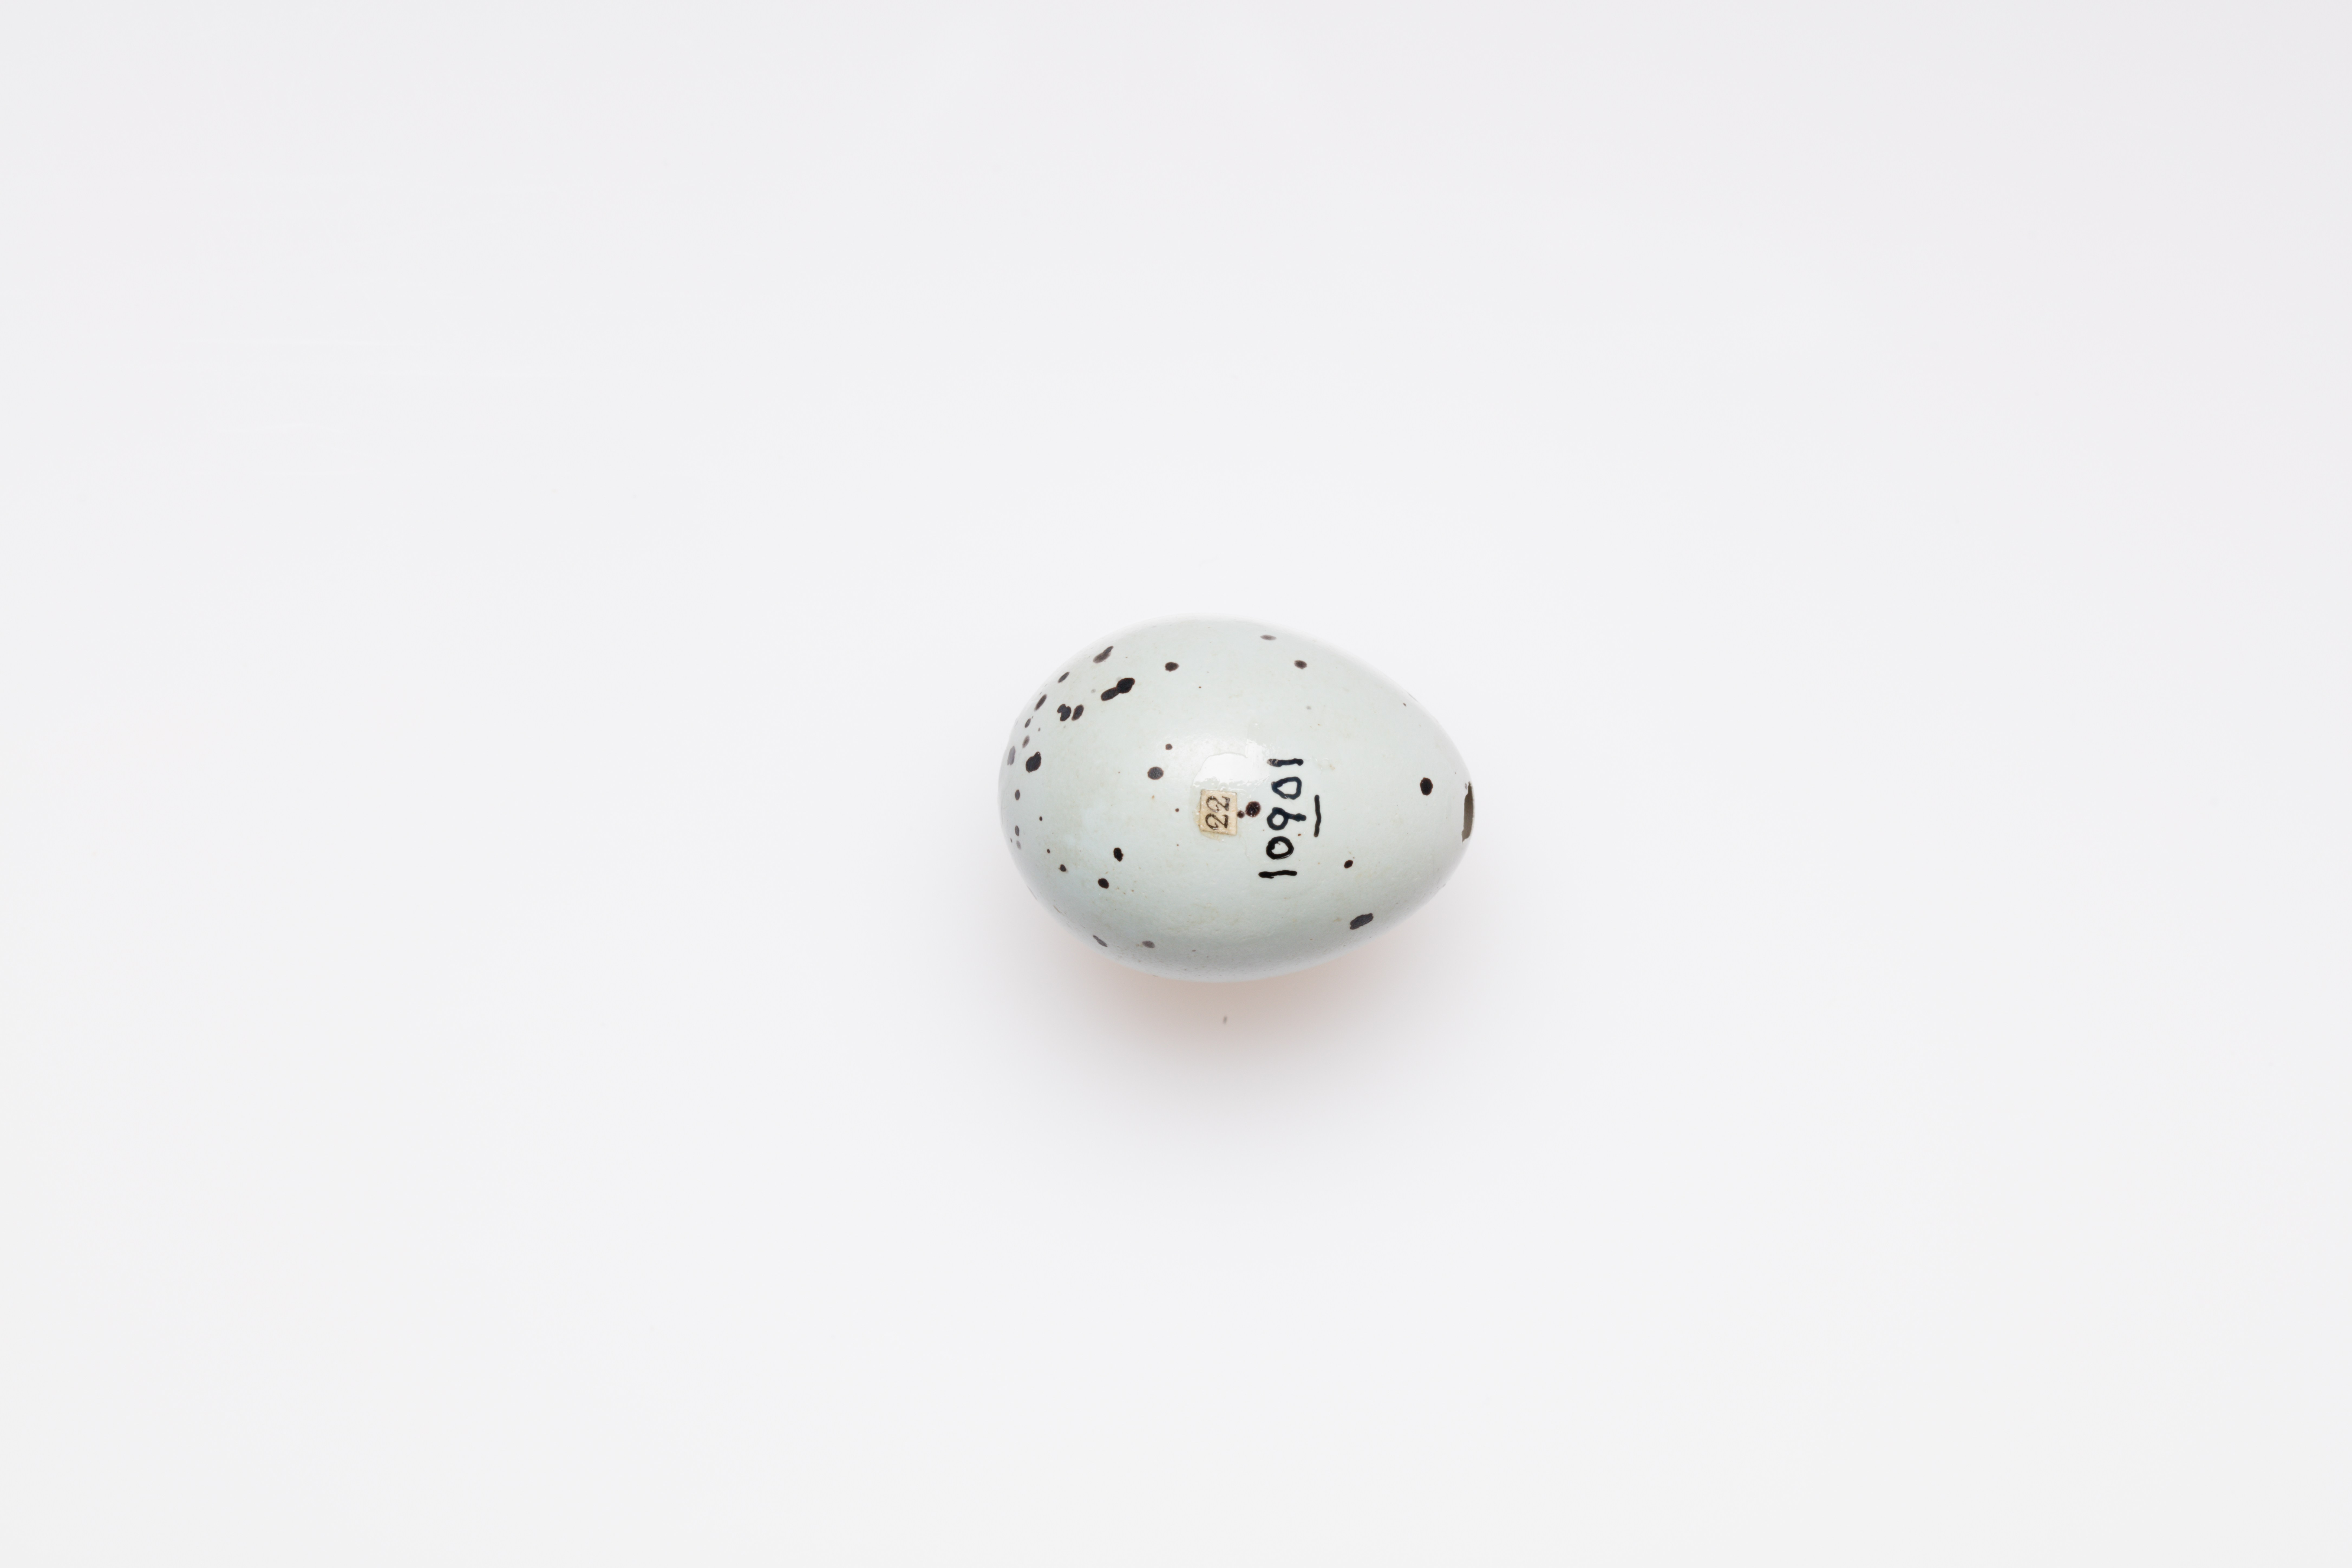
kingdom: Animalia
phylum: Chordata
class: Aves
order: Passeriformes
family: Turdidae
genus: Turdus
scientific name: Turdus philomelos
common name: Song thrush
